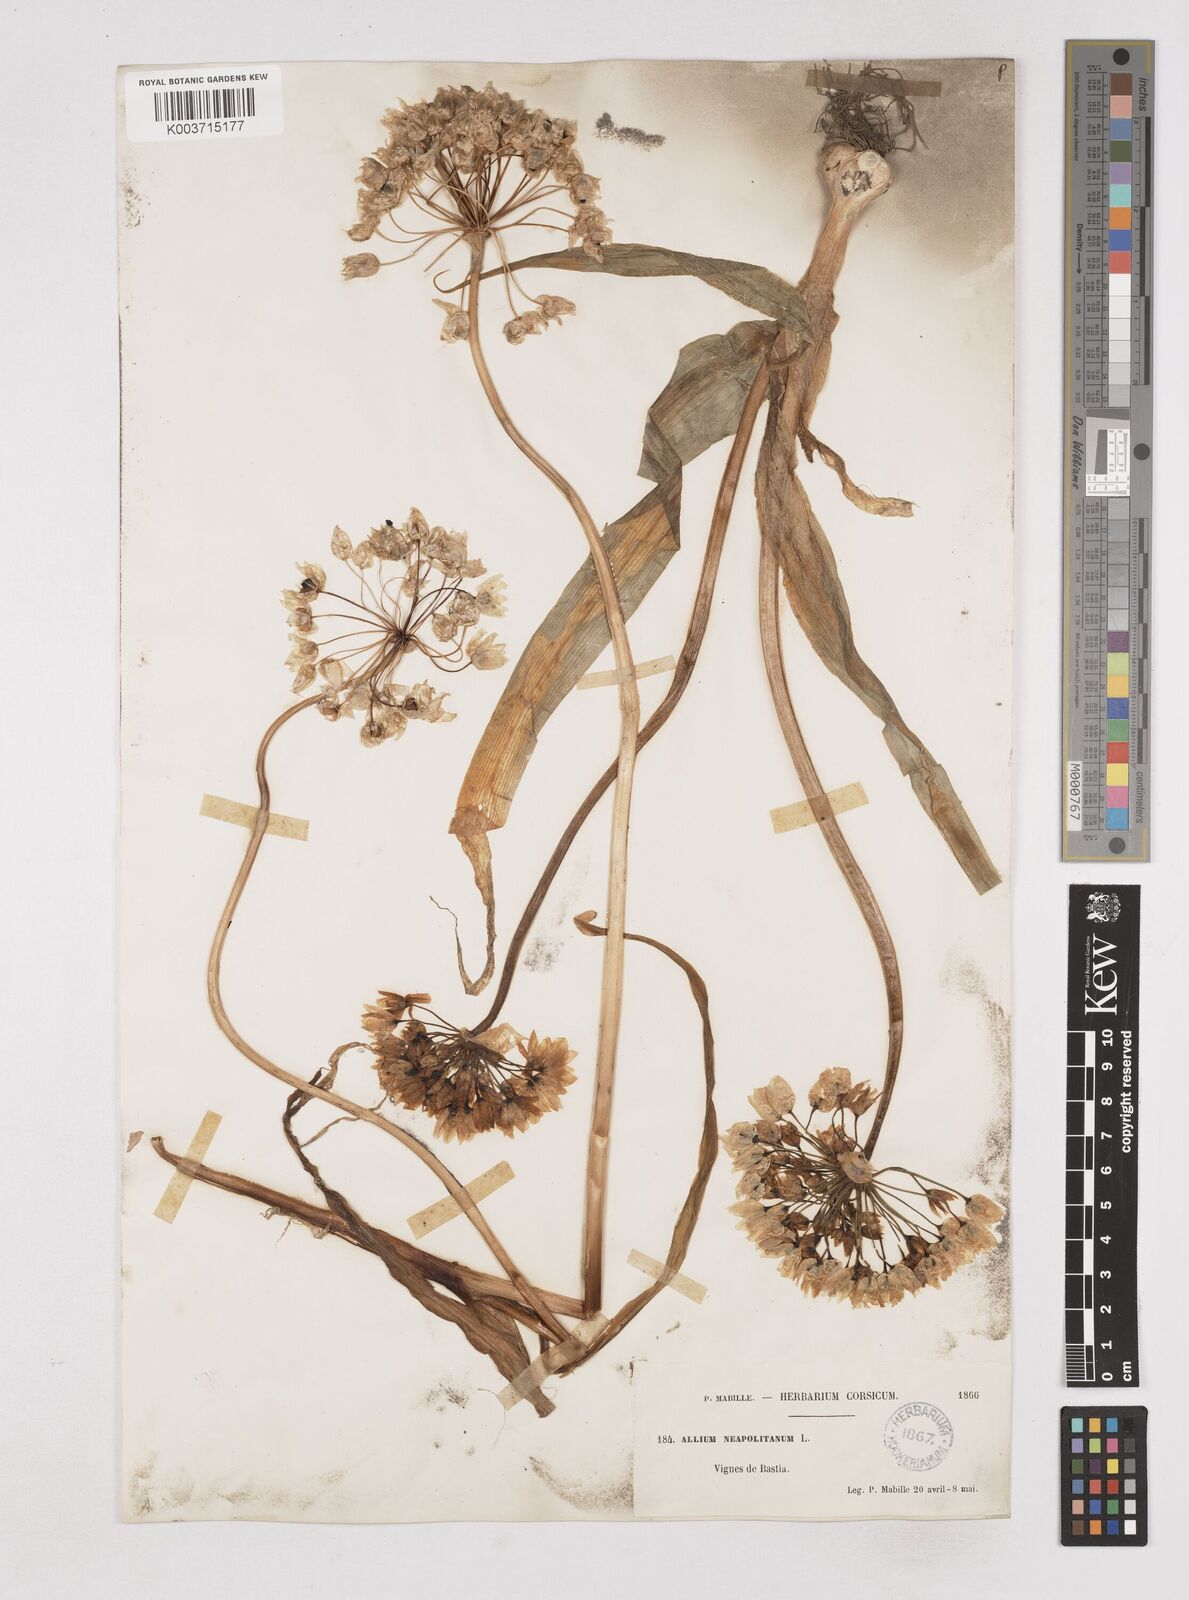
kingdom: Plantae
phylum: Tracheophyta
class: Liliopsida
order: Asparagales
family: Amaryllidaceae
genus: Allium
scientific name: Allium neapolitanum
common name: Neapolitan garlic
